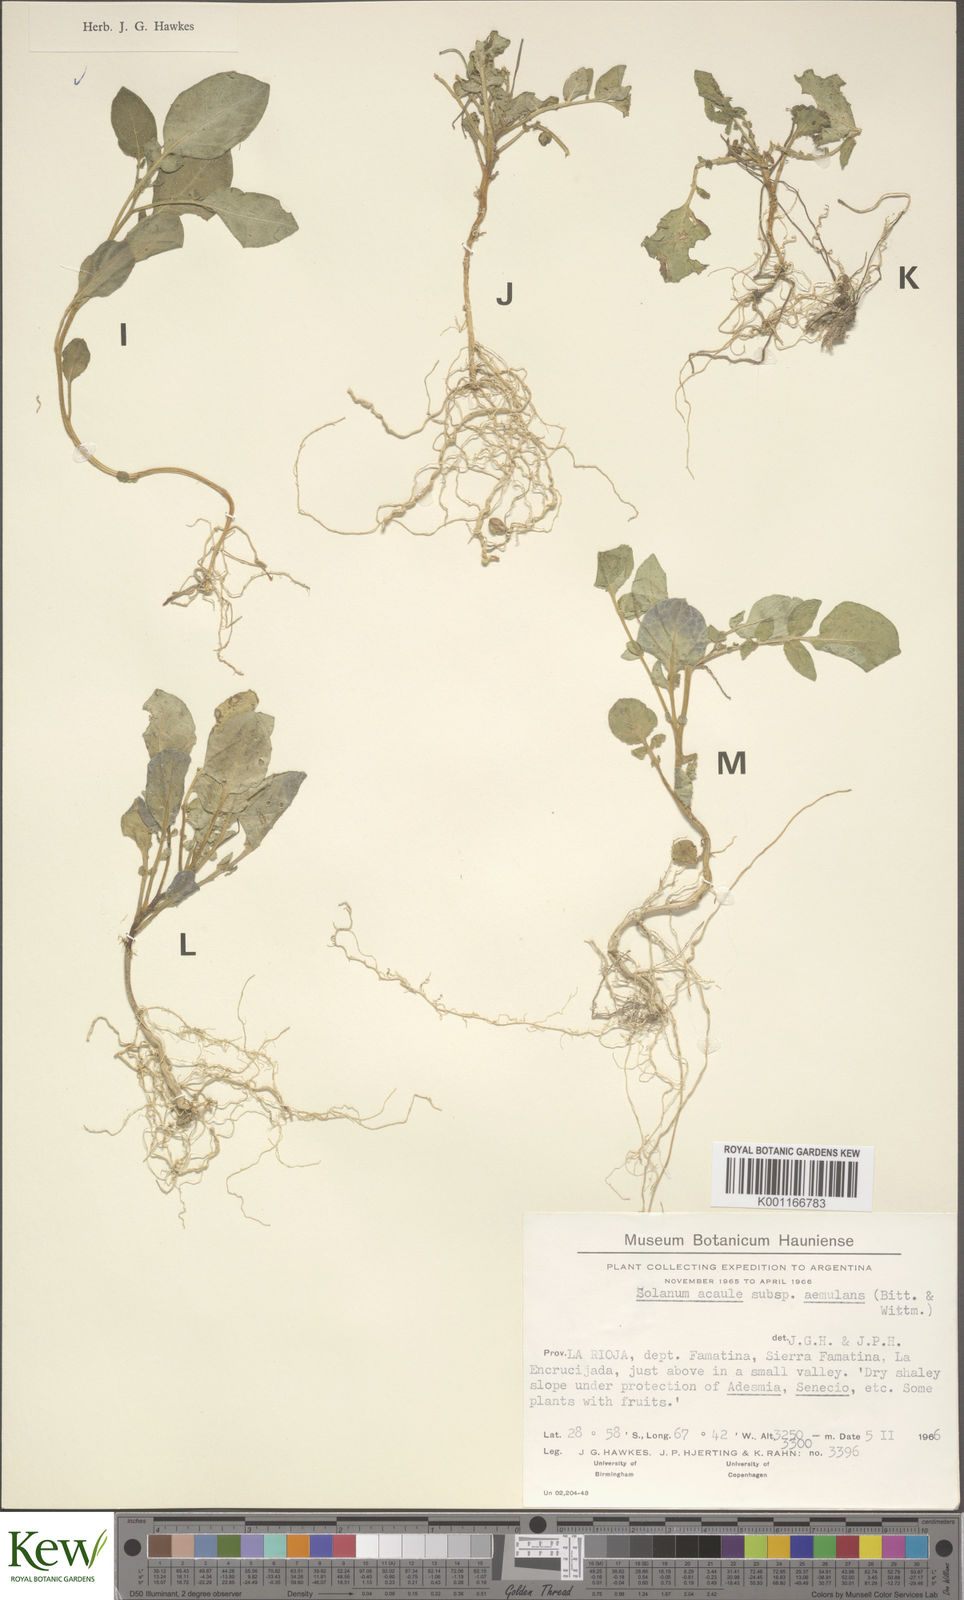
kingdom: Plantae
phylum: Tracheophyta
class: Magnoliopsida
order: Solanales
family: Solanaceae
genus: Solanum
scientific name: Solanum aemulans
